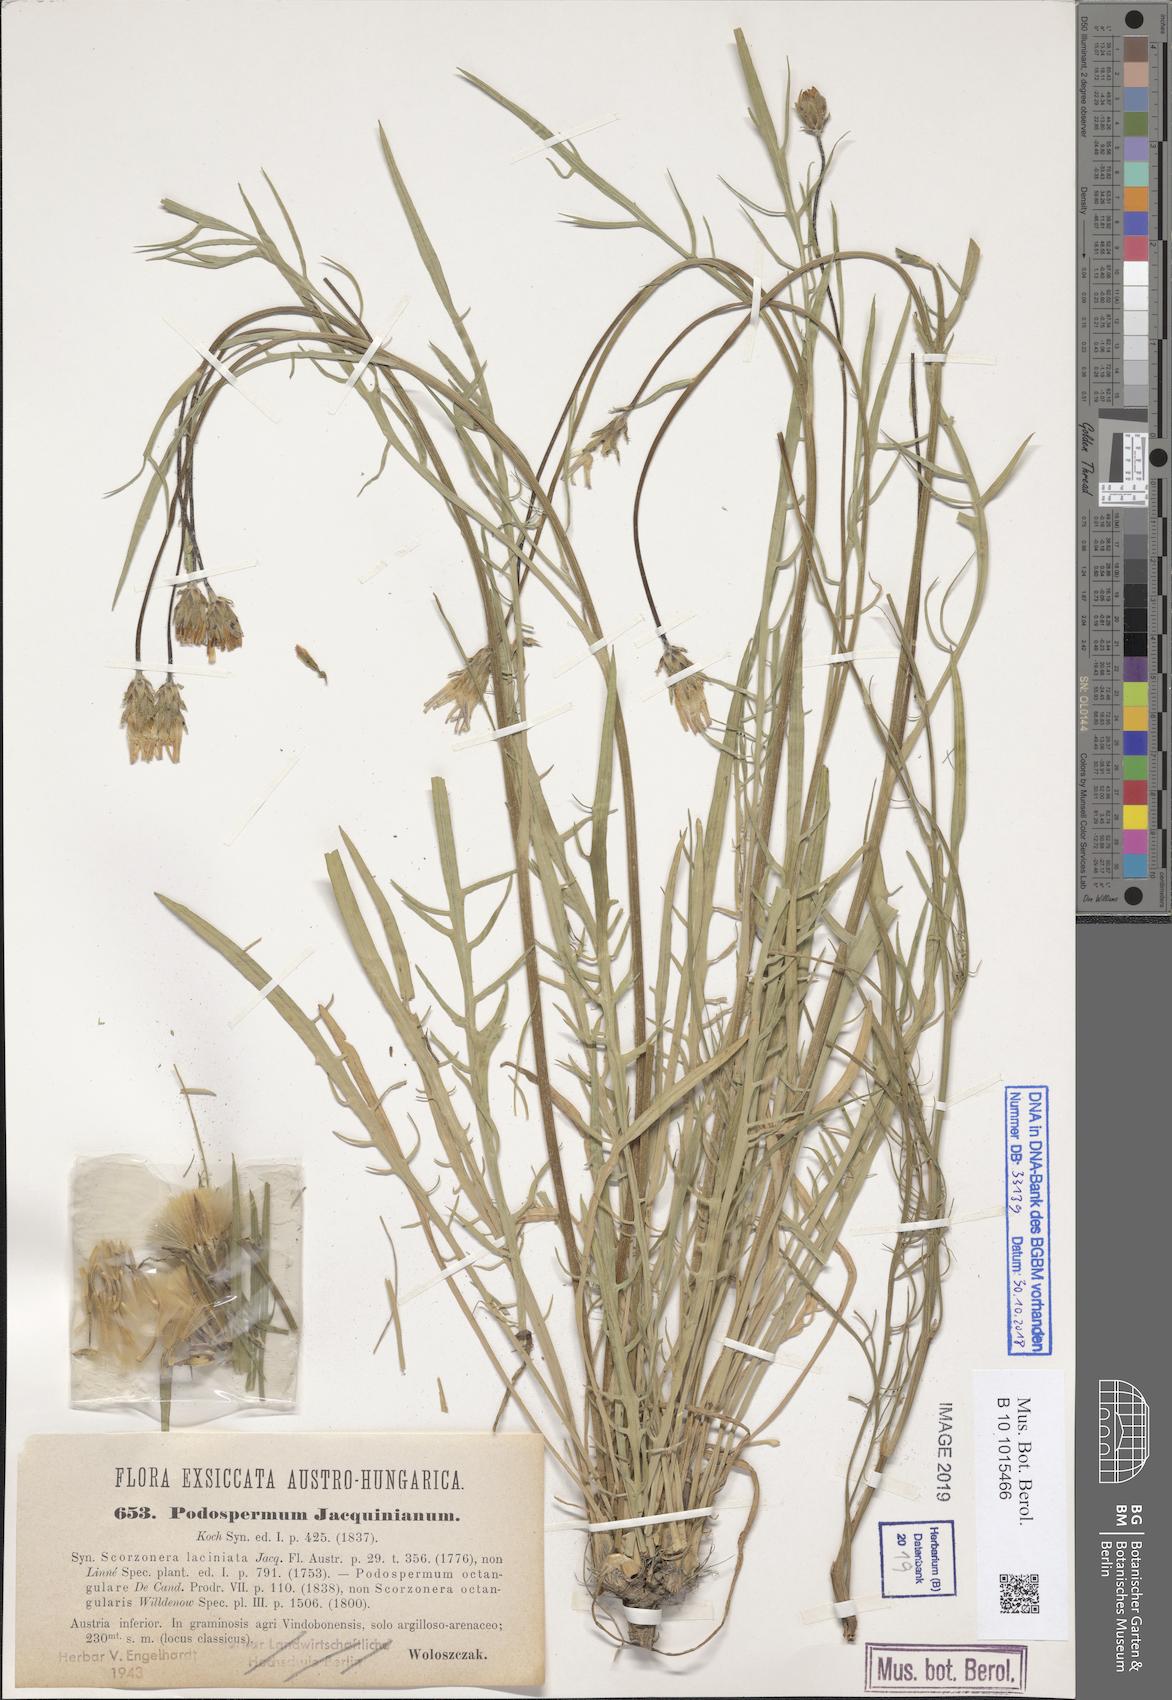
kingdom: Plantae
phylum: Tracheophyta
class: Magnoliopsida
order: Asterales
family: Asteraceae
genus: Scorzonera
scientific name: Scorzonera cana
